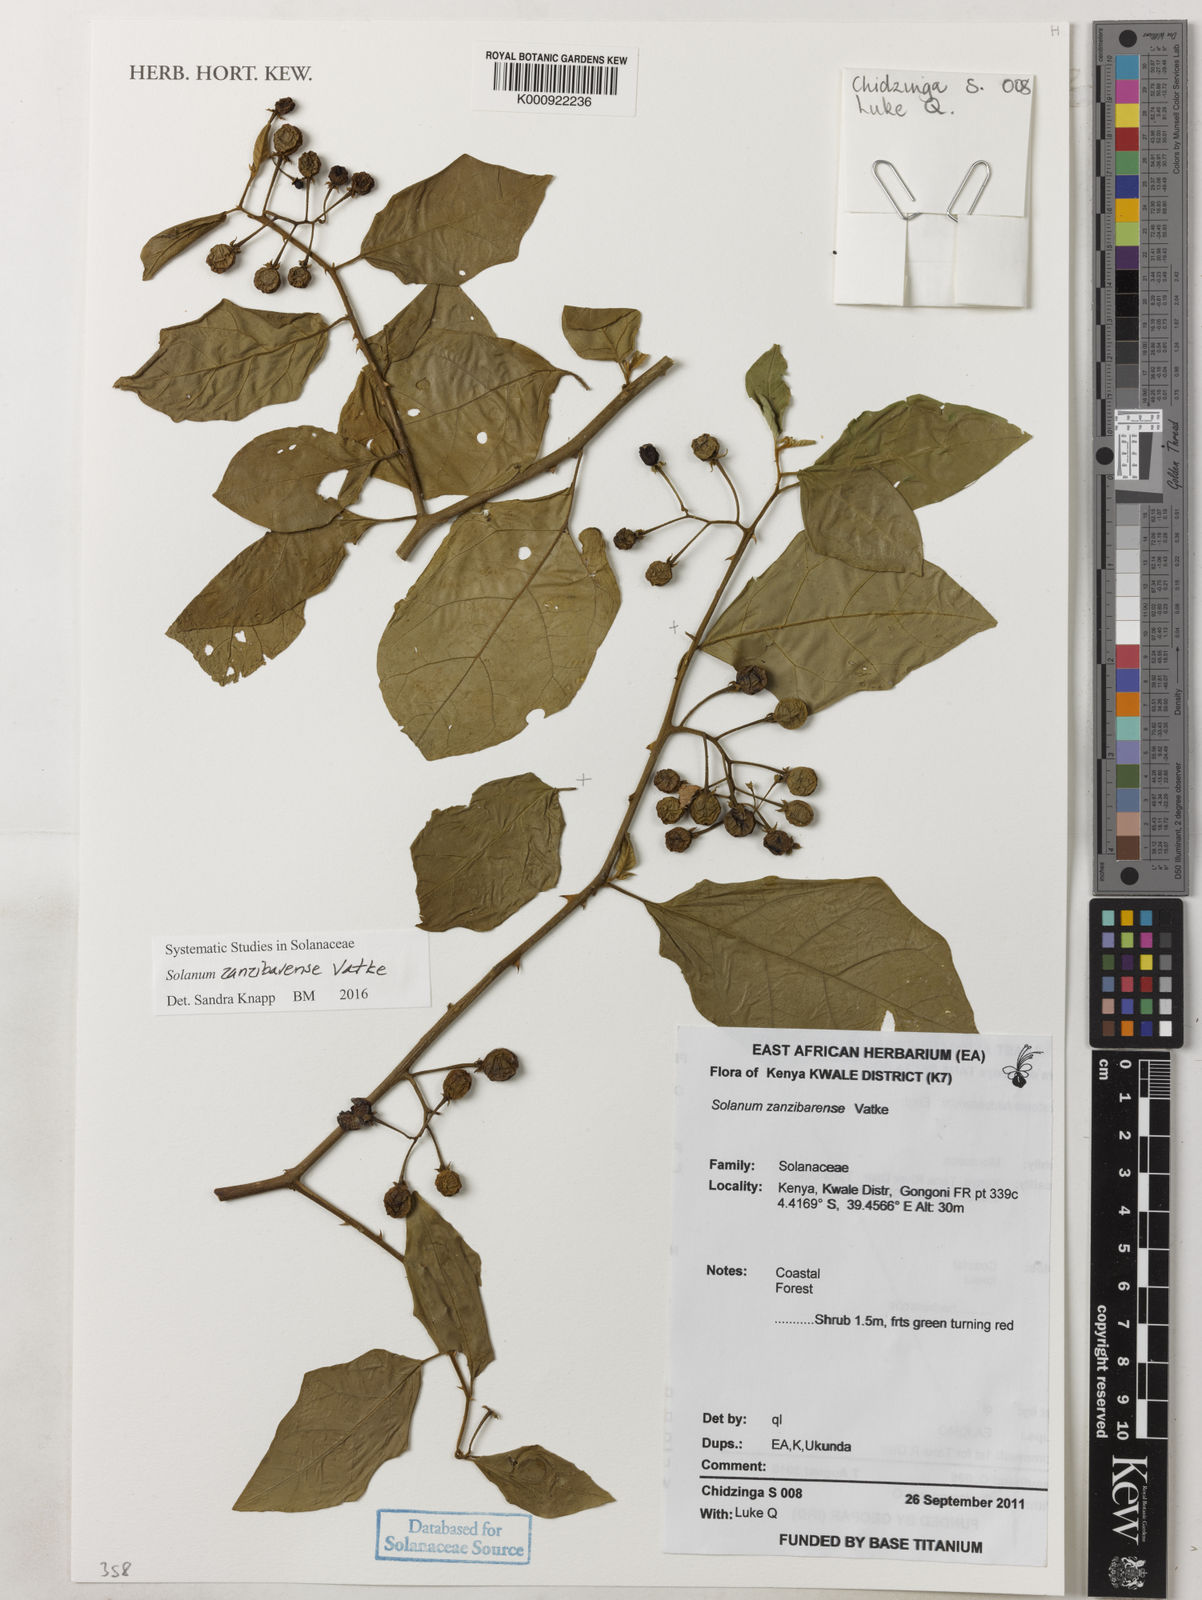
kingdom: Plantae
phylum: Tracheophyta
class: Magnoliopsida
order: Solanales
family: Solanaceae
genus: Solanum
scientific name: Solanum zanzibarense
